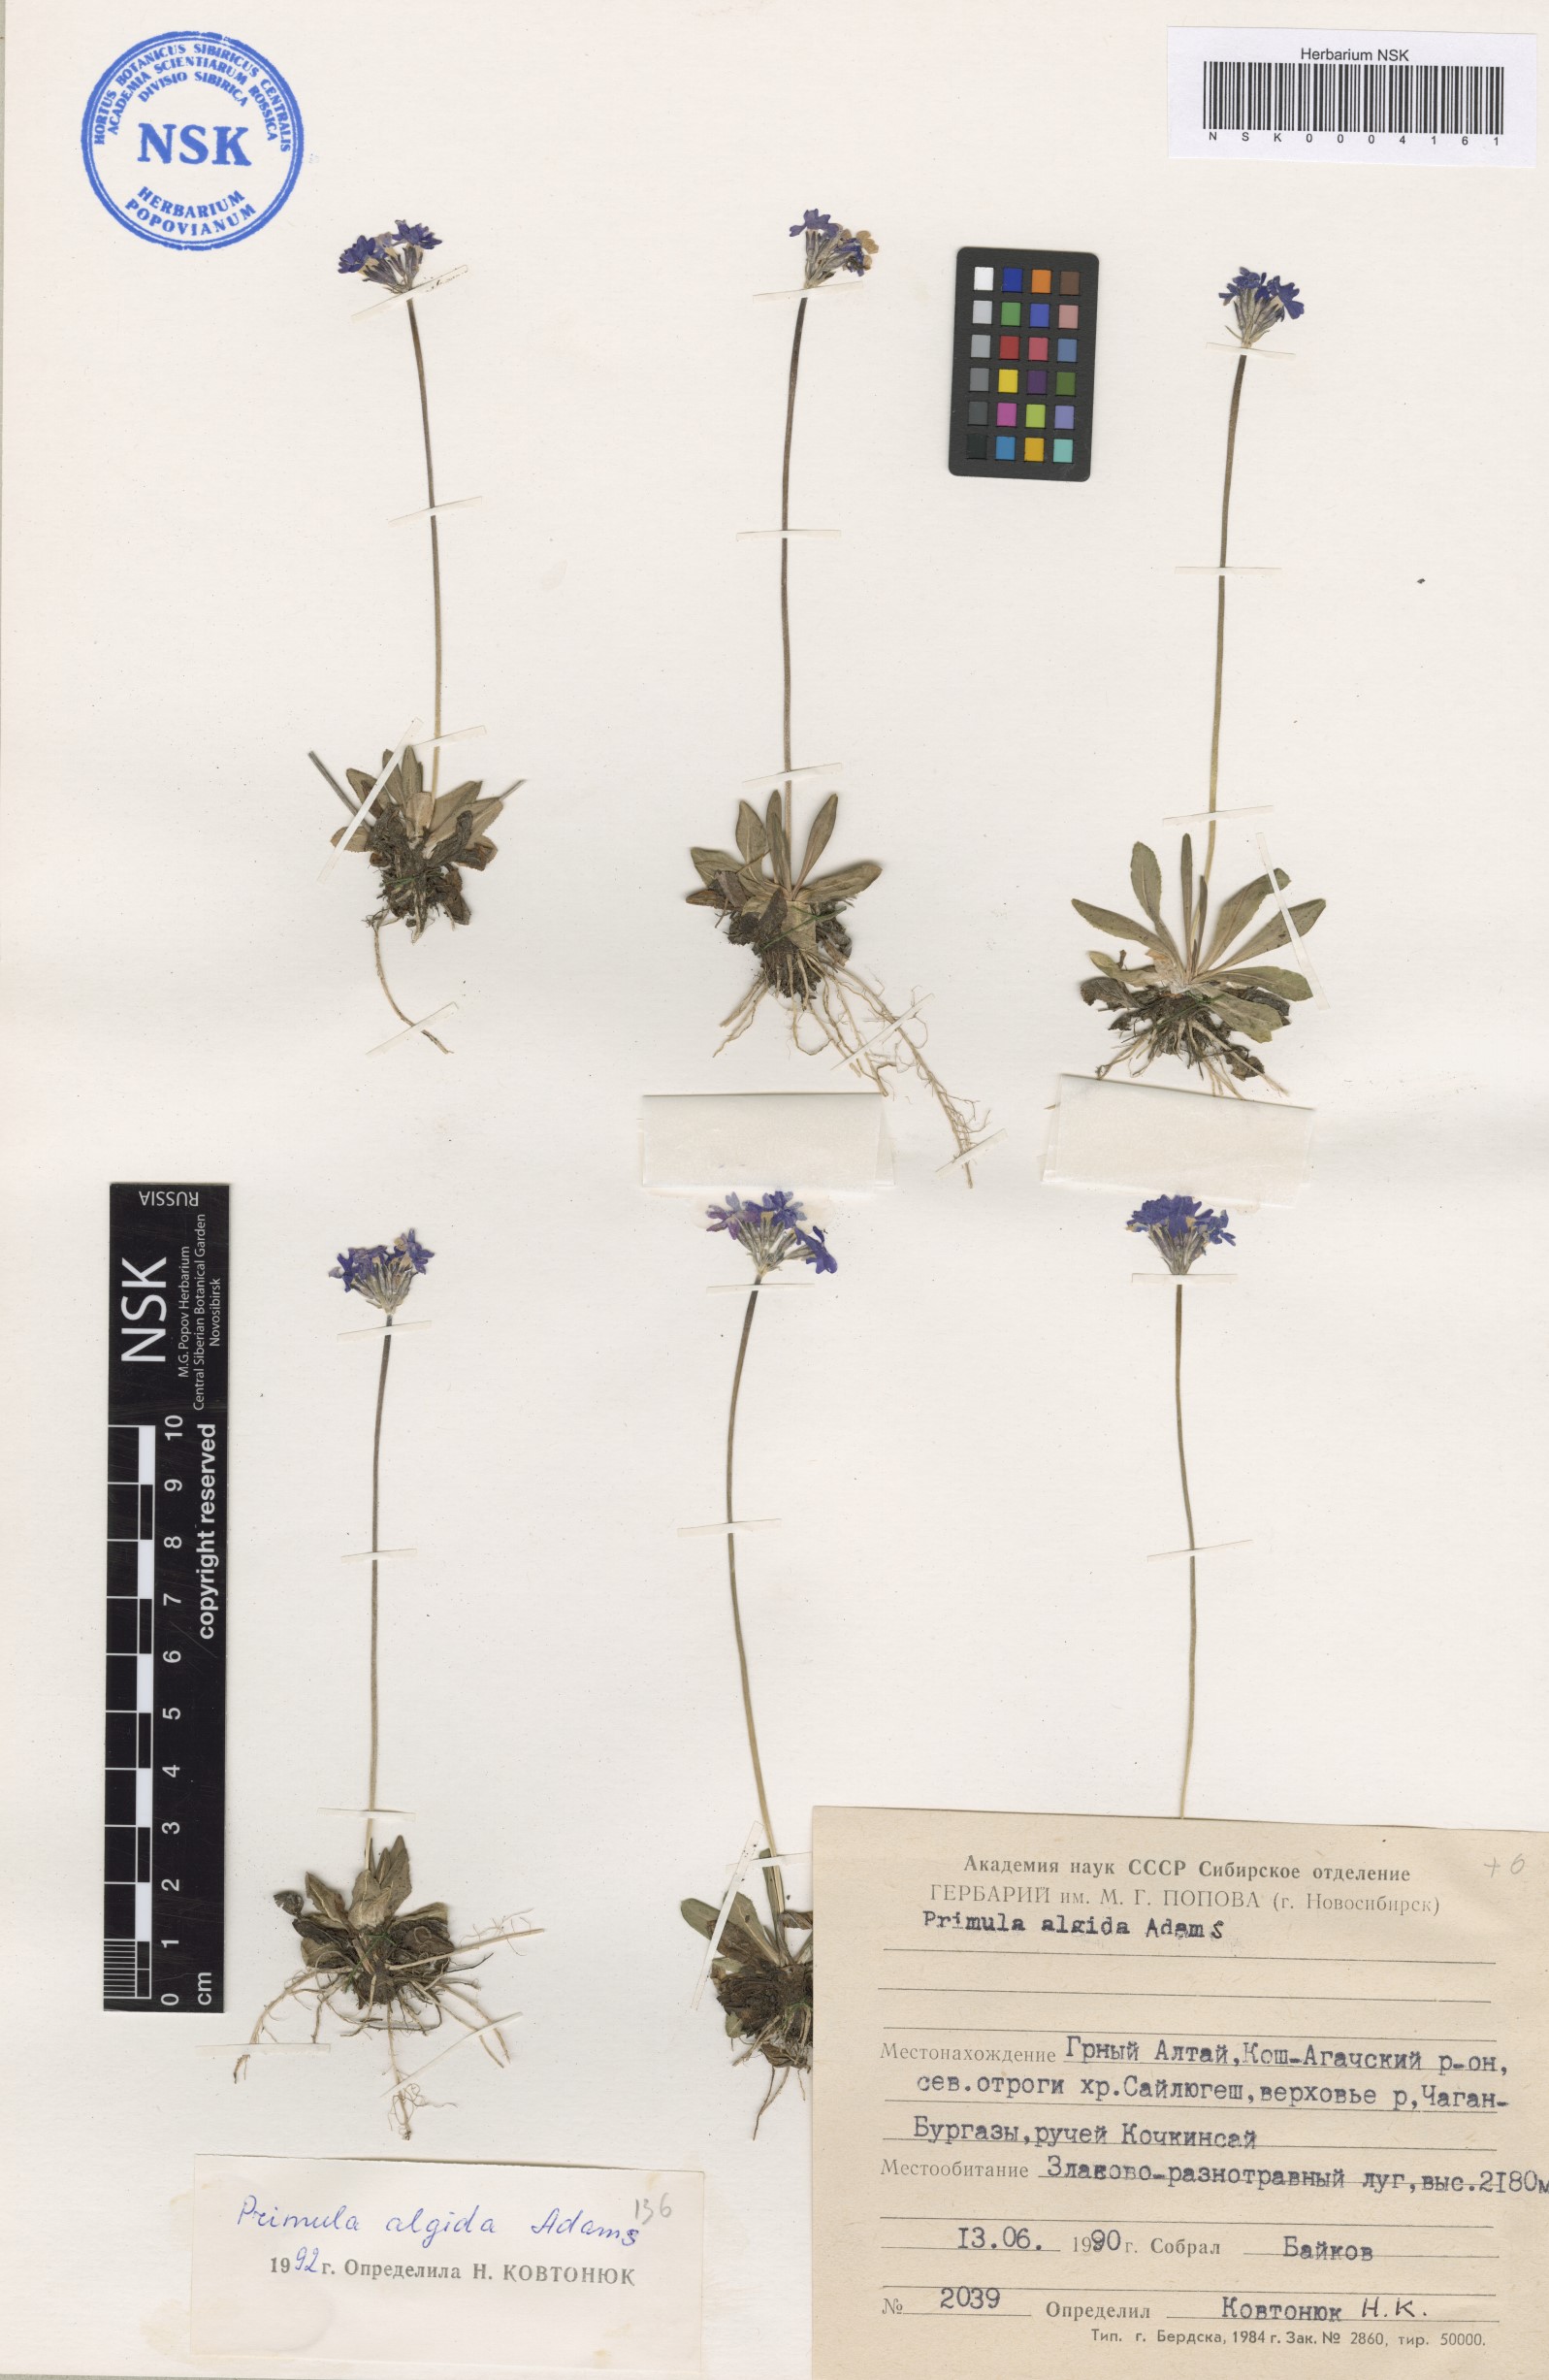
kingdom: Plantae
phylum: Tracheophyta
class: Magnoliopsida
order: Ericales
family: Primulaceae
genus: Primula
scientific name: Primula algida
